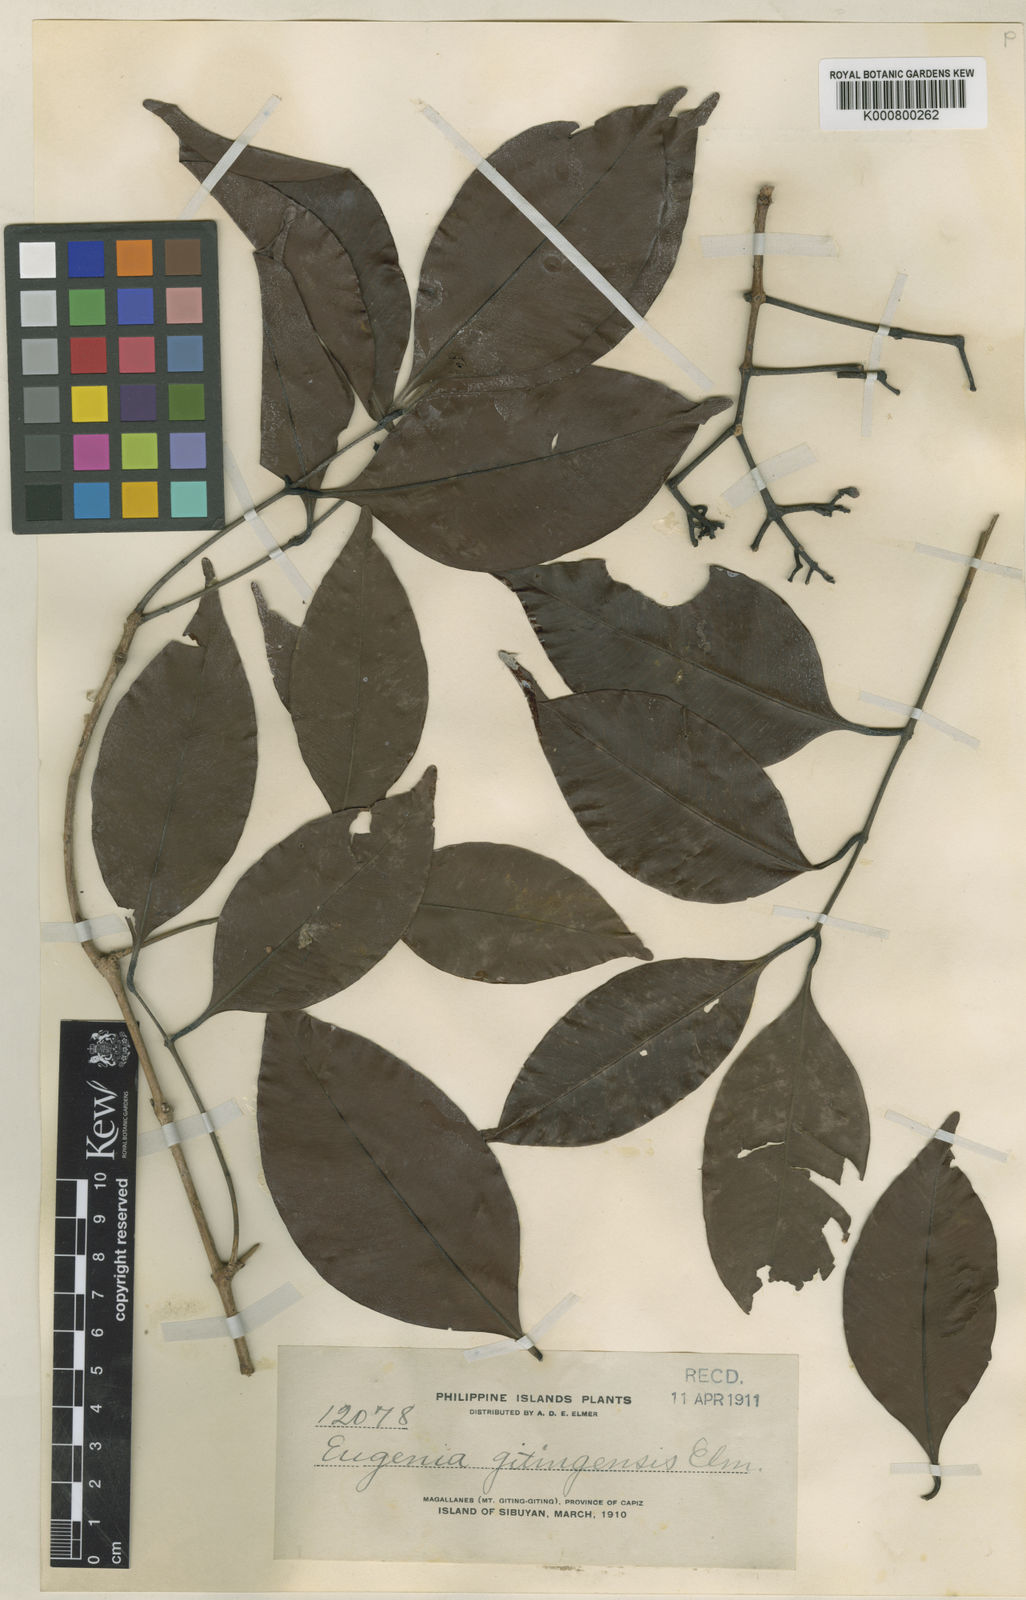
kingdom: Plantae
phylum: Tracheophyta
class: Magnoliopsida
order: Myrtales
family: Myrtaceae
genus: Syzygium
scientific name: Syzygium gitingense
